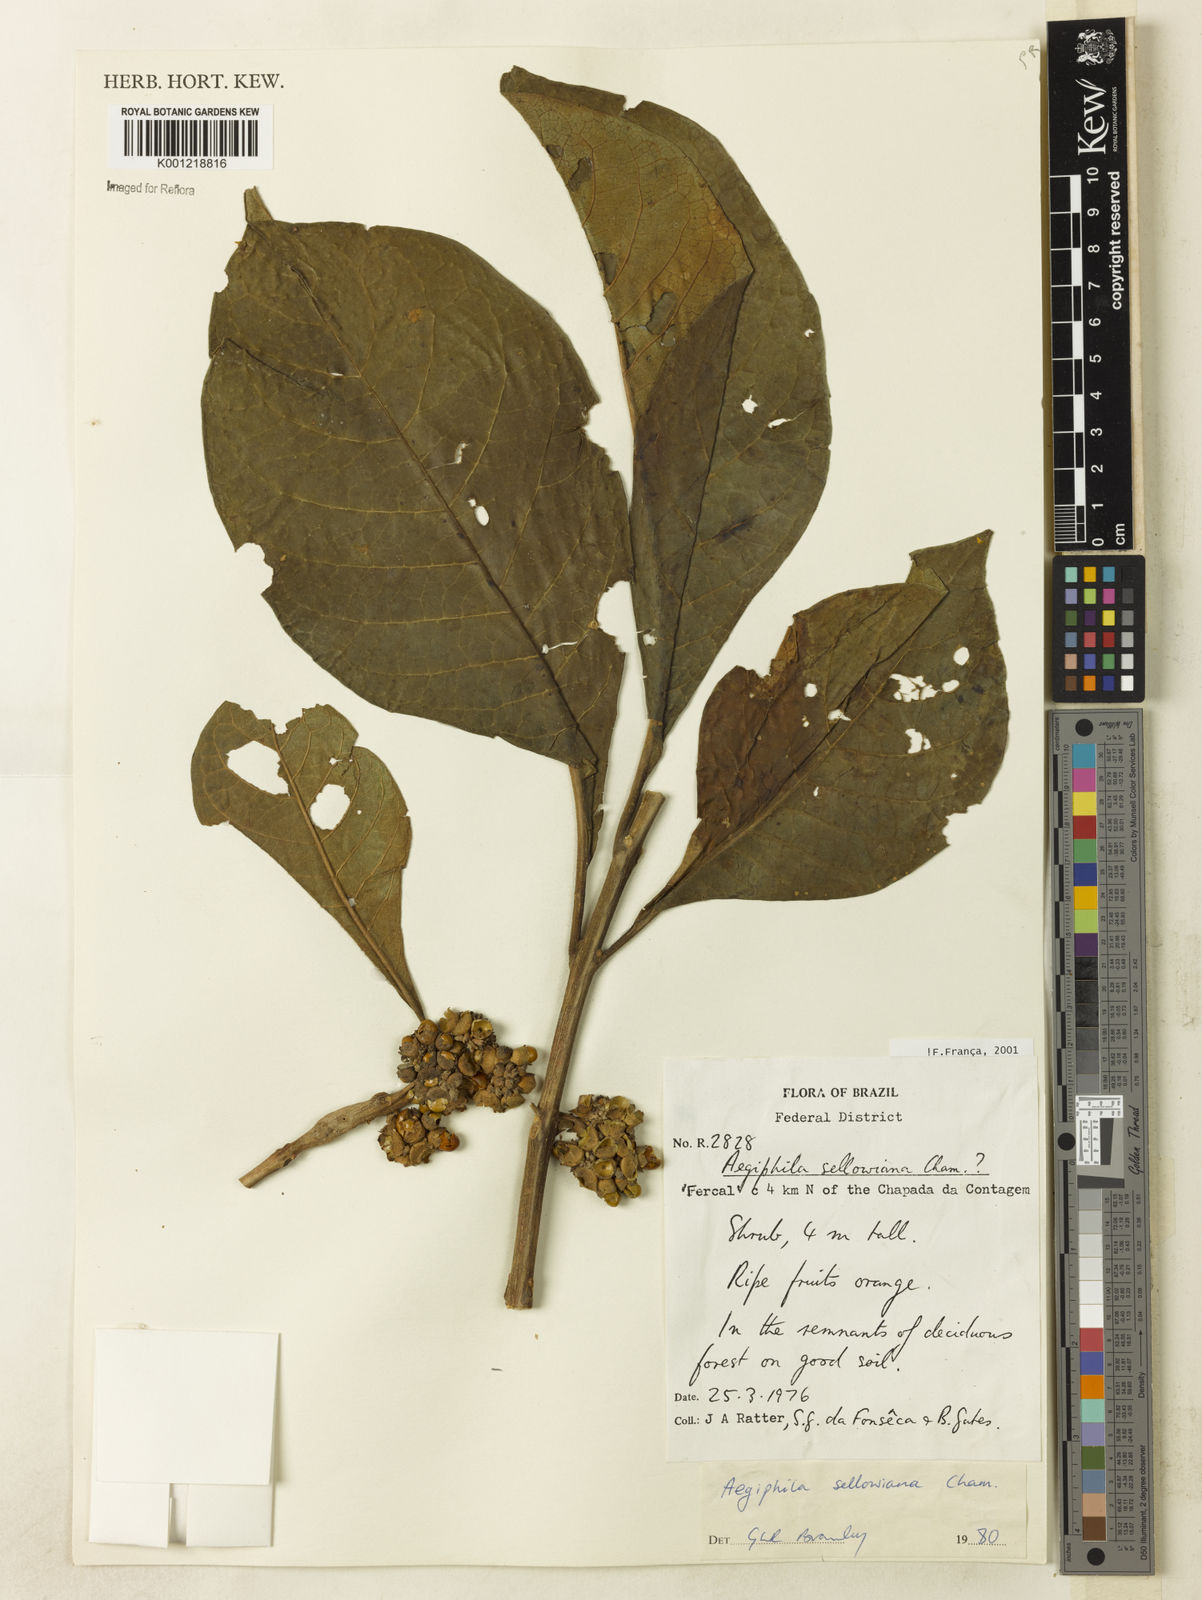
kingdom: Plantae
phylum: Tracheophyta
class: Magnoliopsida
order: Lamiales
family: Lamiaceae
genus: Aegiphila
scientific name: Aegiphila verticillata
